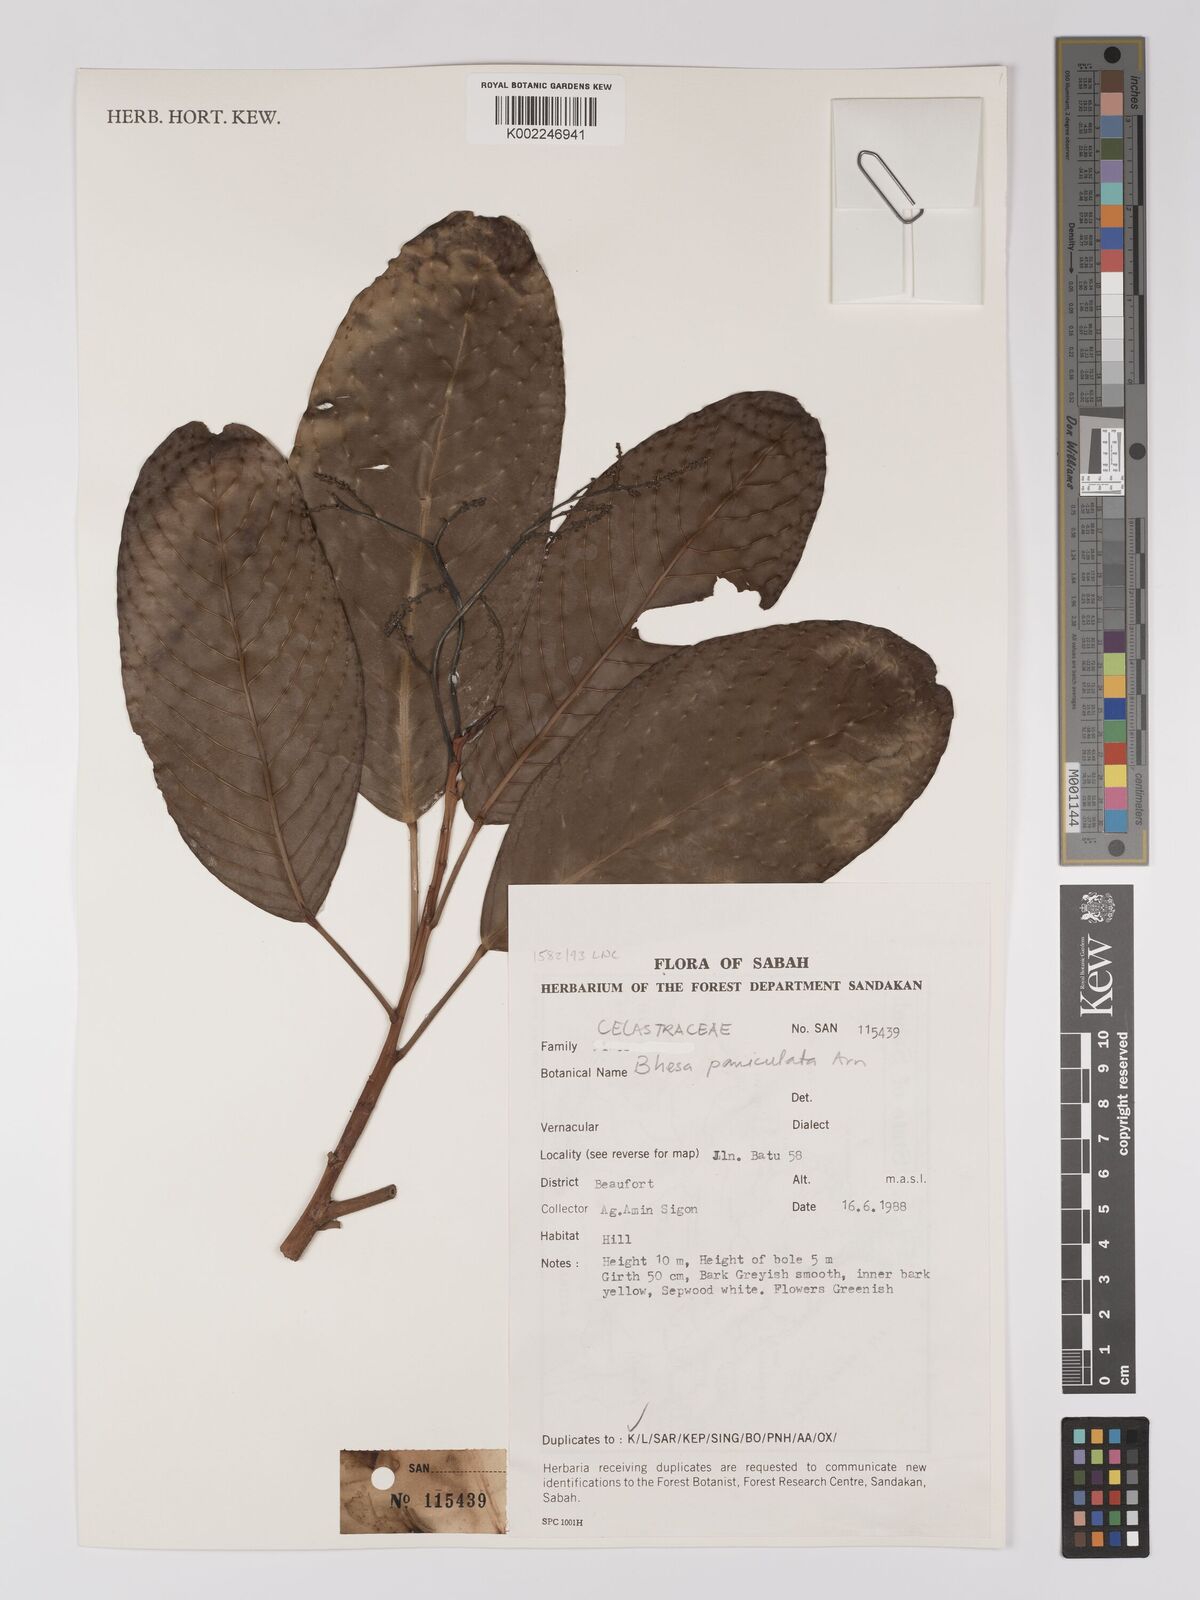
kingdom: Plantae
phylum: Tracheophyta
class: Magnoliopsida
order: Malpighiales
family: Centroplacaceae
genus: Bhesa
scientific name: Bhesa paniculata
